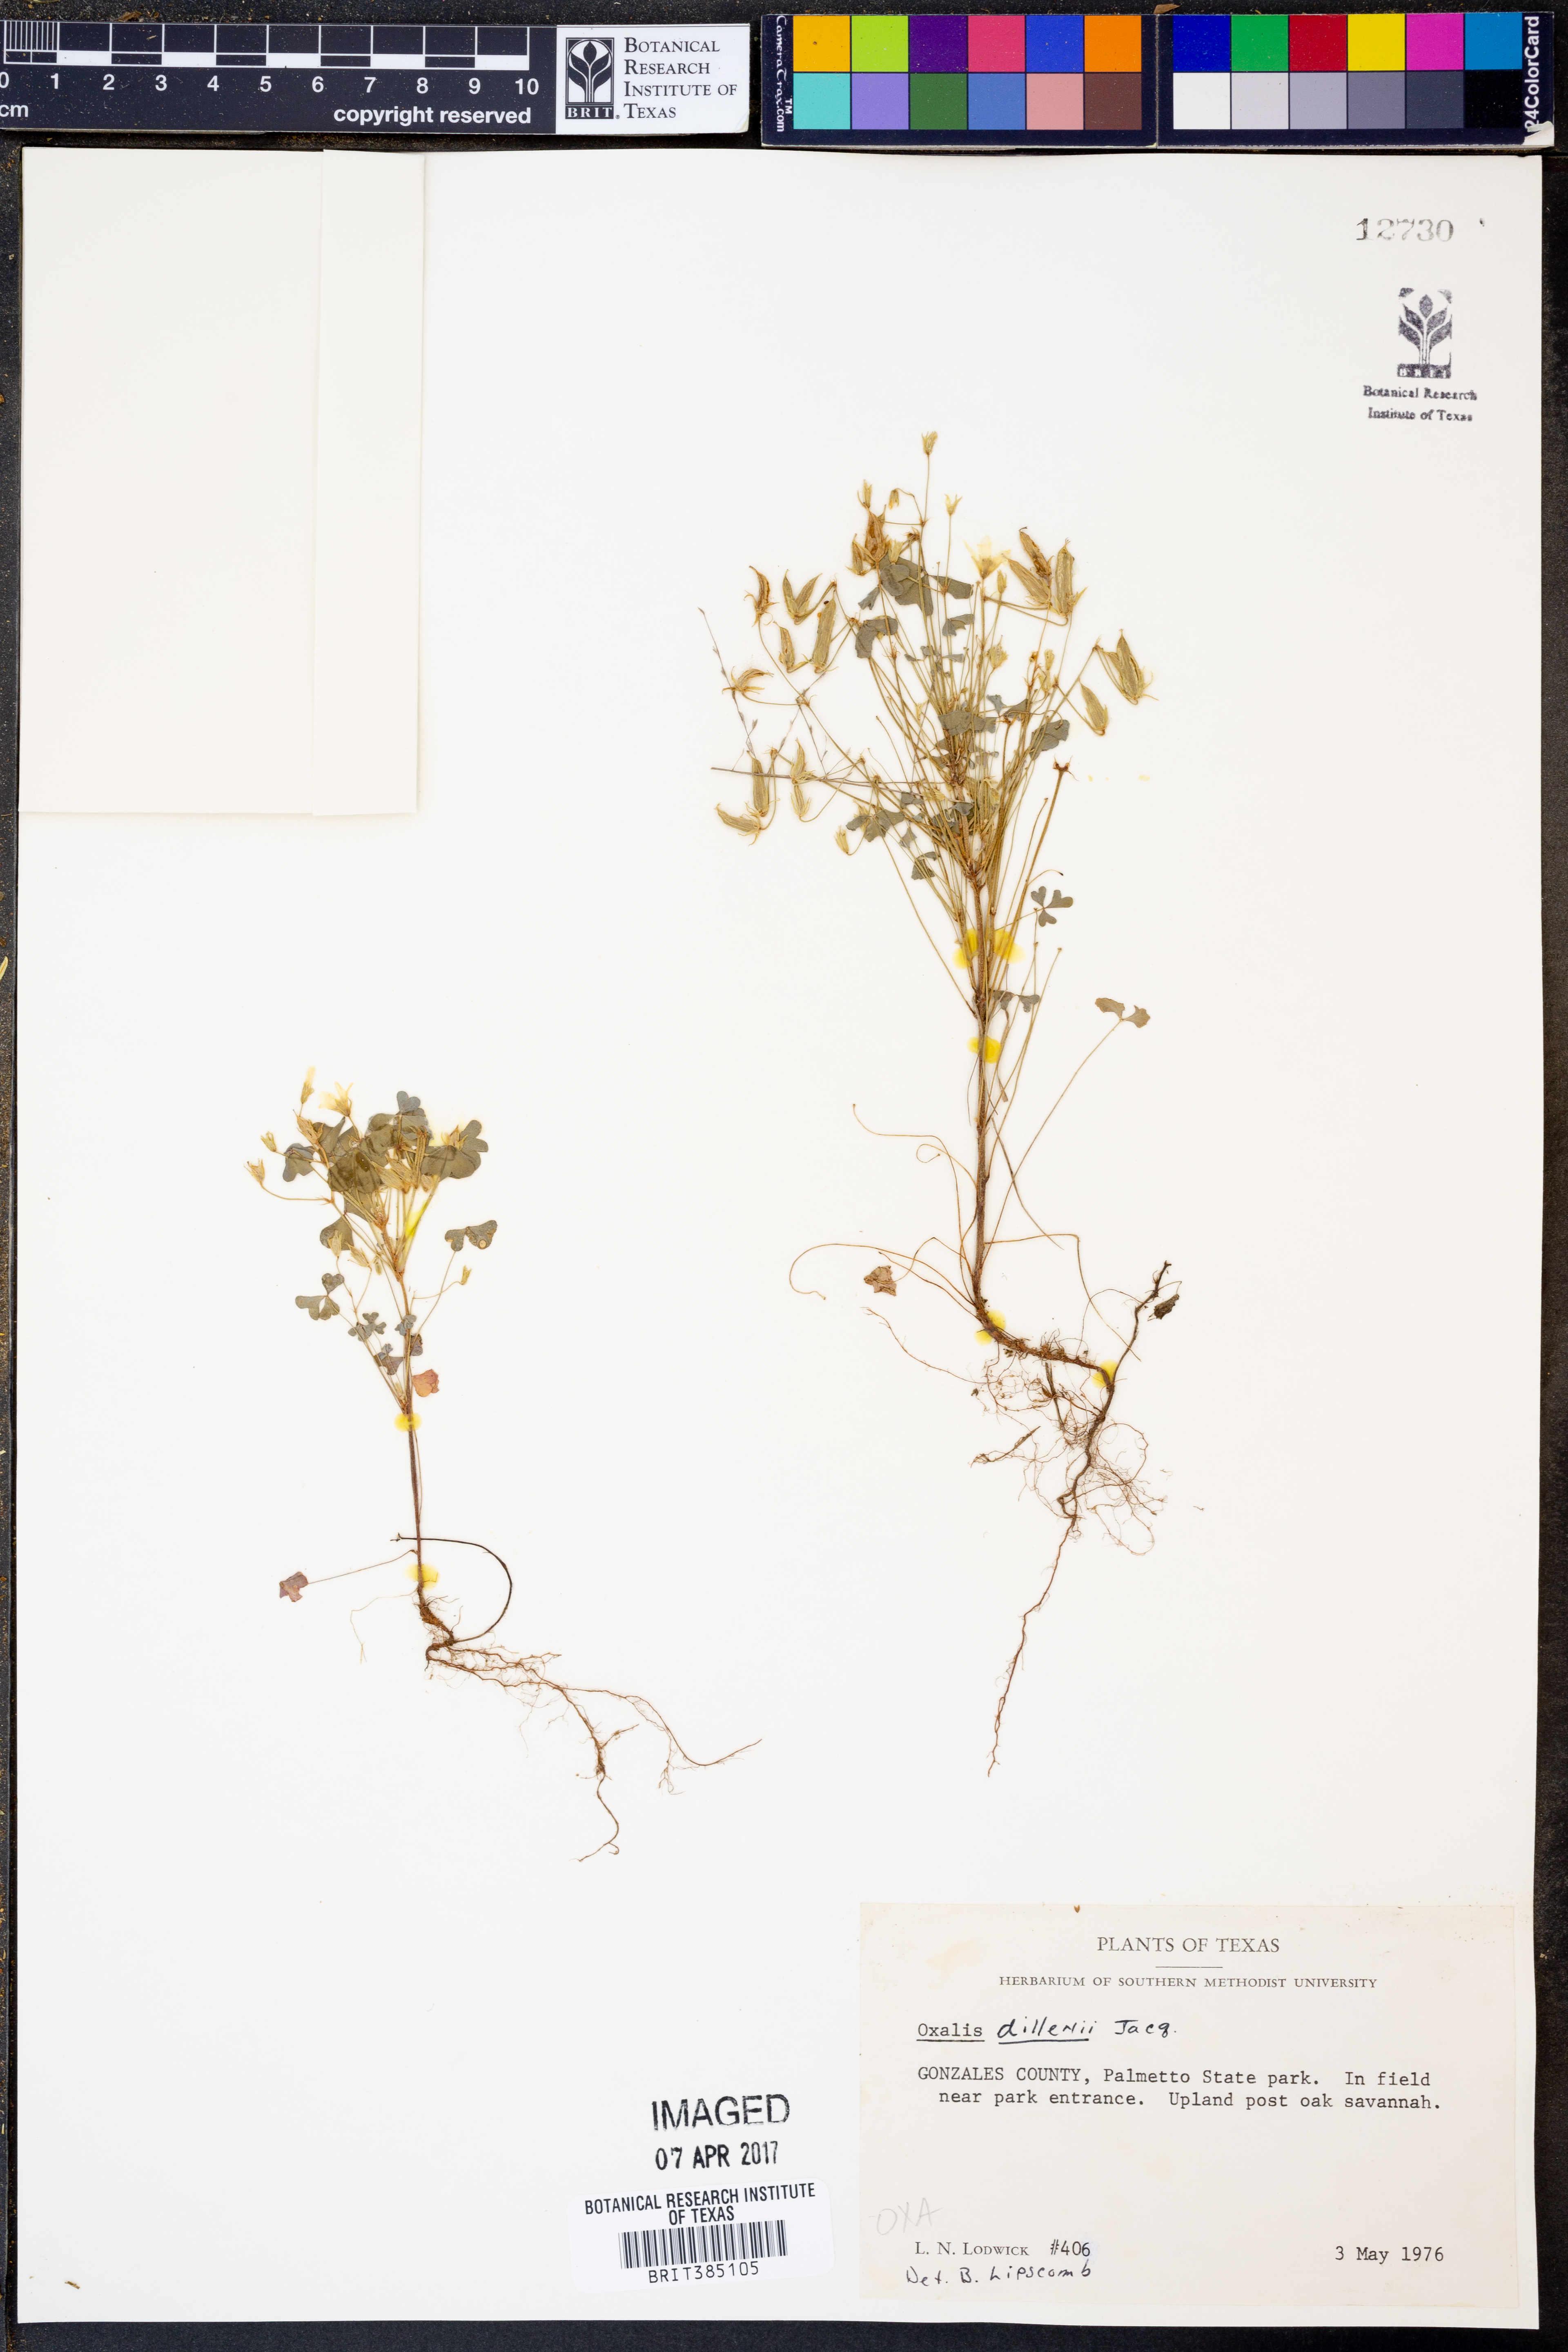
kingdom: Plantae
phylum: Tracheophyta
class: Magnoliopsida
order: Oxalidales
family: Oxalidaceae
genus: Oxalis
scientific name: Oxalis dillenii
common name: Sussex yellow-sorrel
